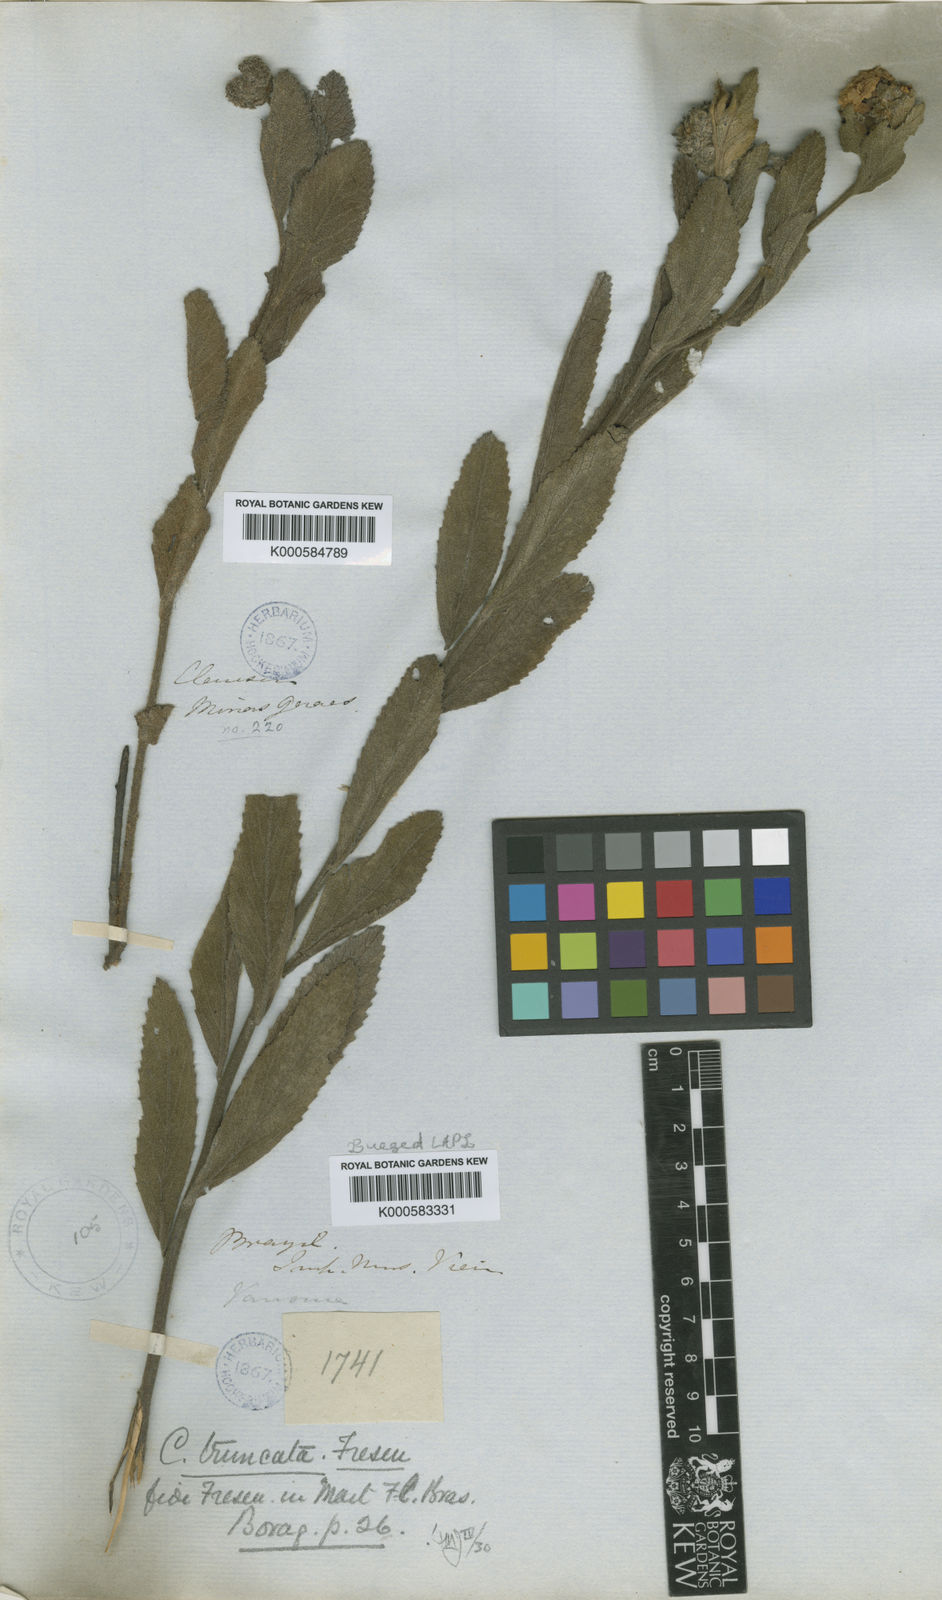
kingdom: Plantae
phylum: Tracheophyta
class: Magnoliopsida
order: Boraginales
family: Cordiaceae
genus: Varronia
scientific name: Varronia truncata
